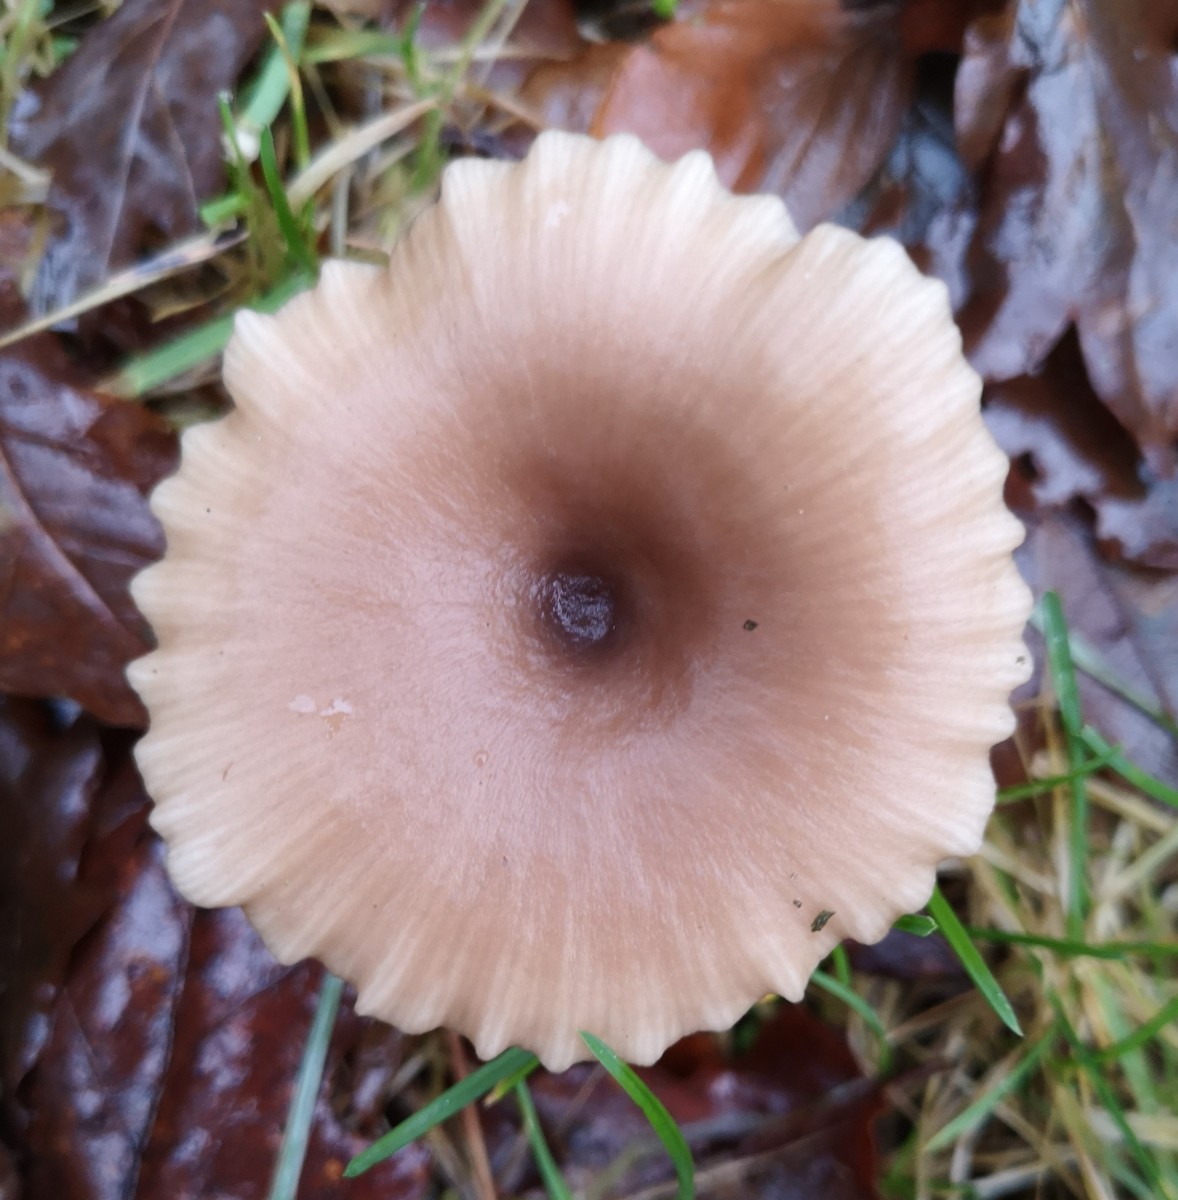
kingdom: Fungi
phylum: Basidiomycota
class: Agaricomycetes
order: Agaricales
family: Pseudoclitocybaceae
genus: Pseudoclitocybe
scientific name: Pseudoclitocybe cyathiformis
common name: almindelig bægertragthat
